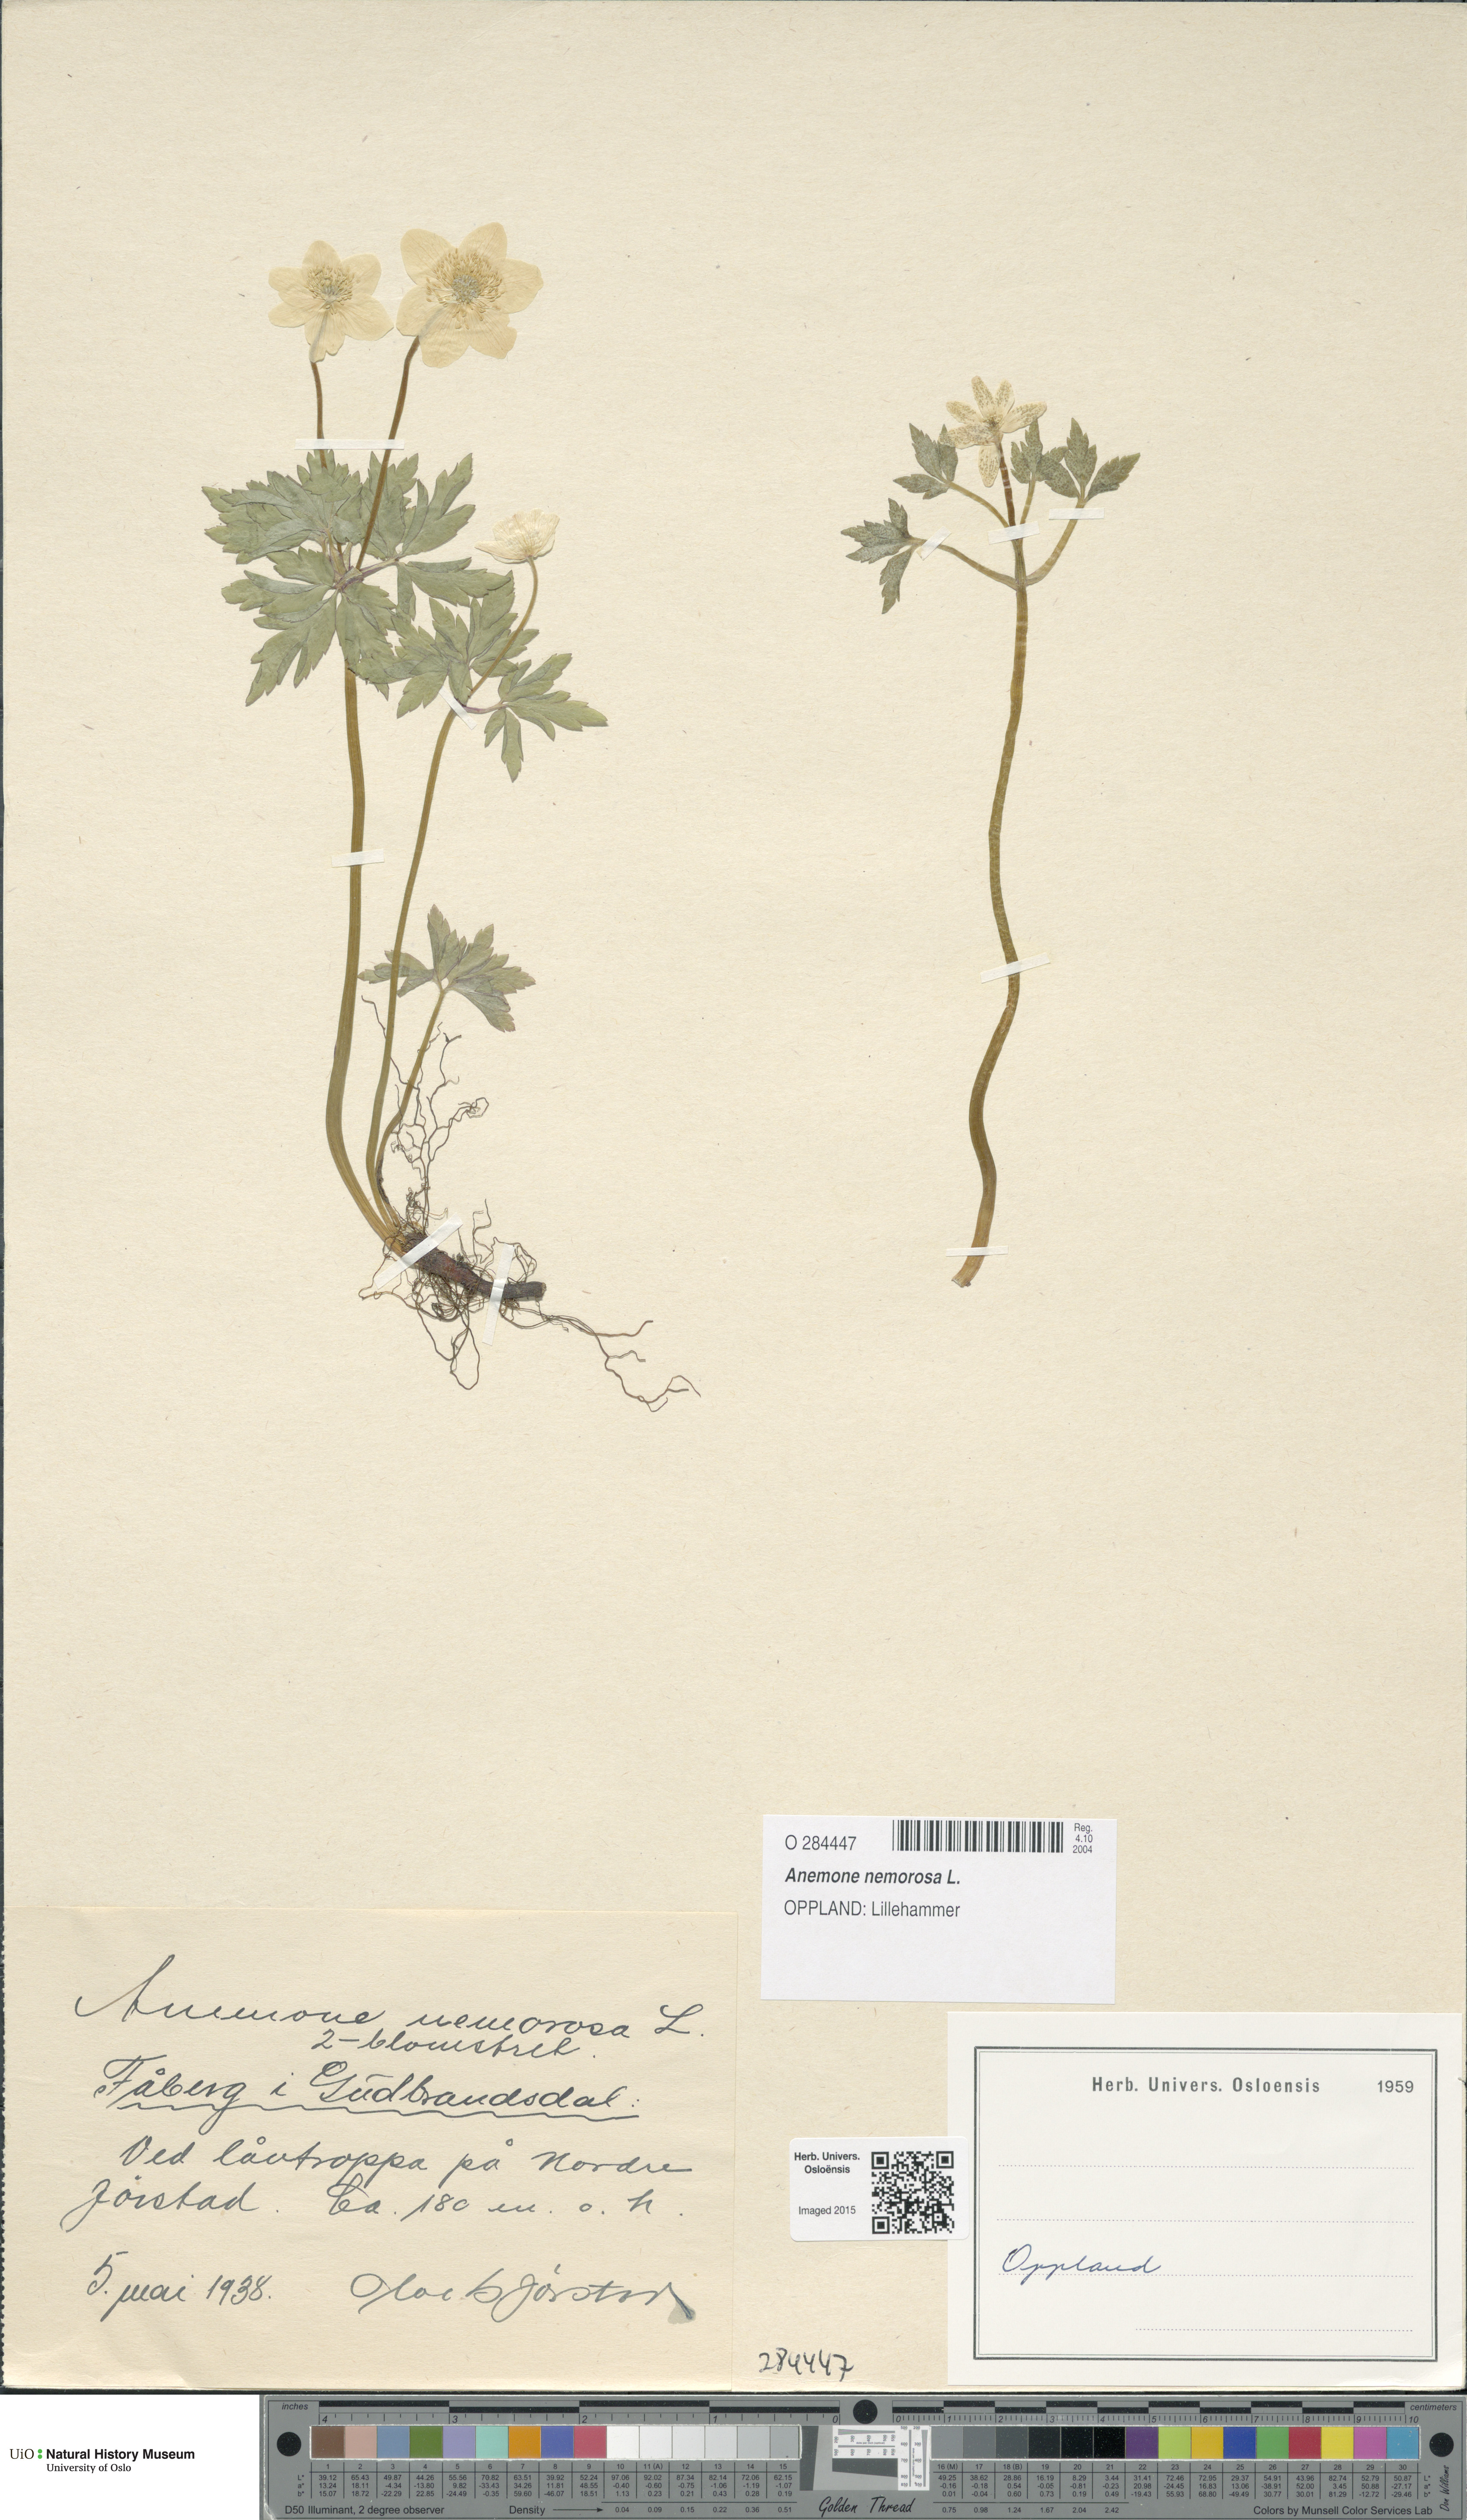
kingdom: Plantae
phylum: Tracheophyta
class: Magnoliopsida
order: Ranunculales
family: Ranunculaceae
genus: Anemone
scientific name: Anemone nemorosa
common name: Wood anemone
